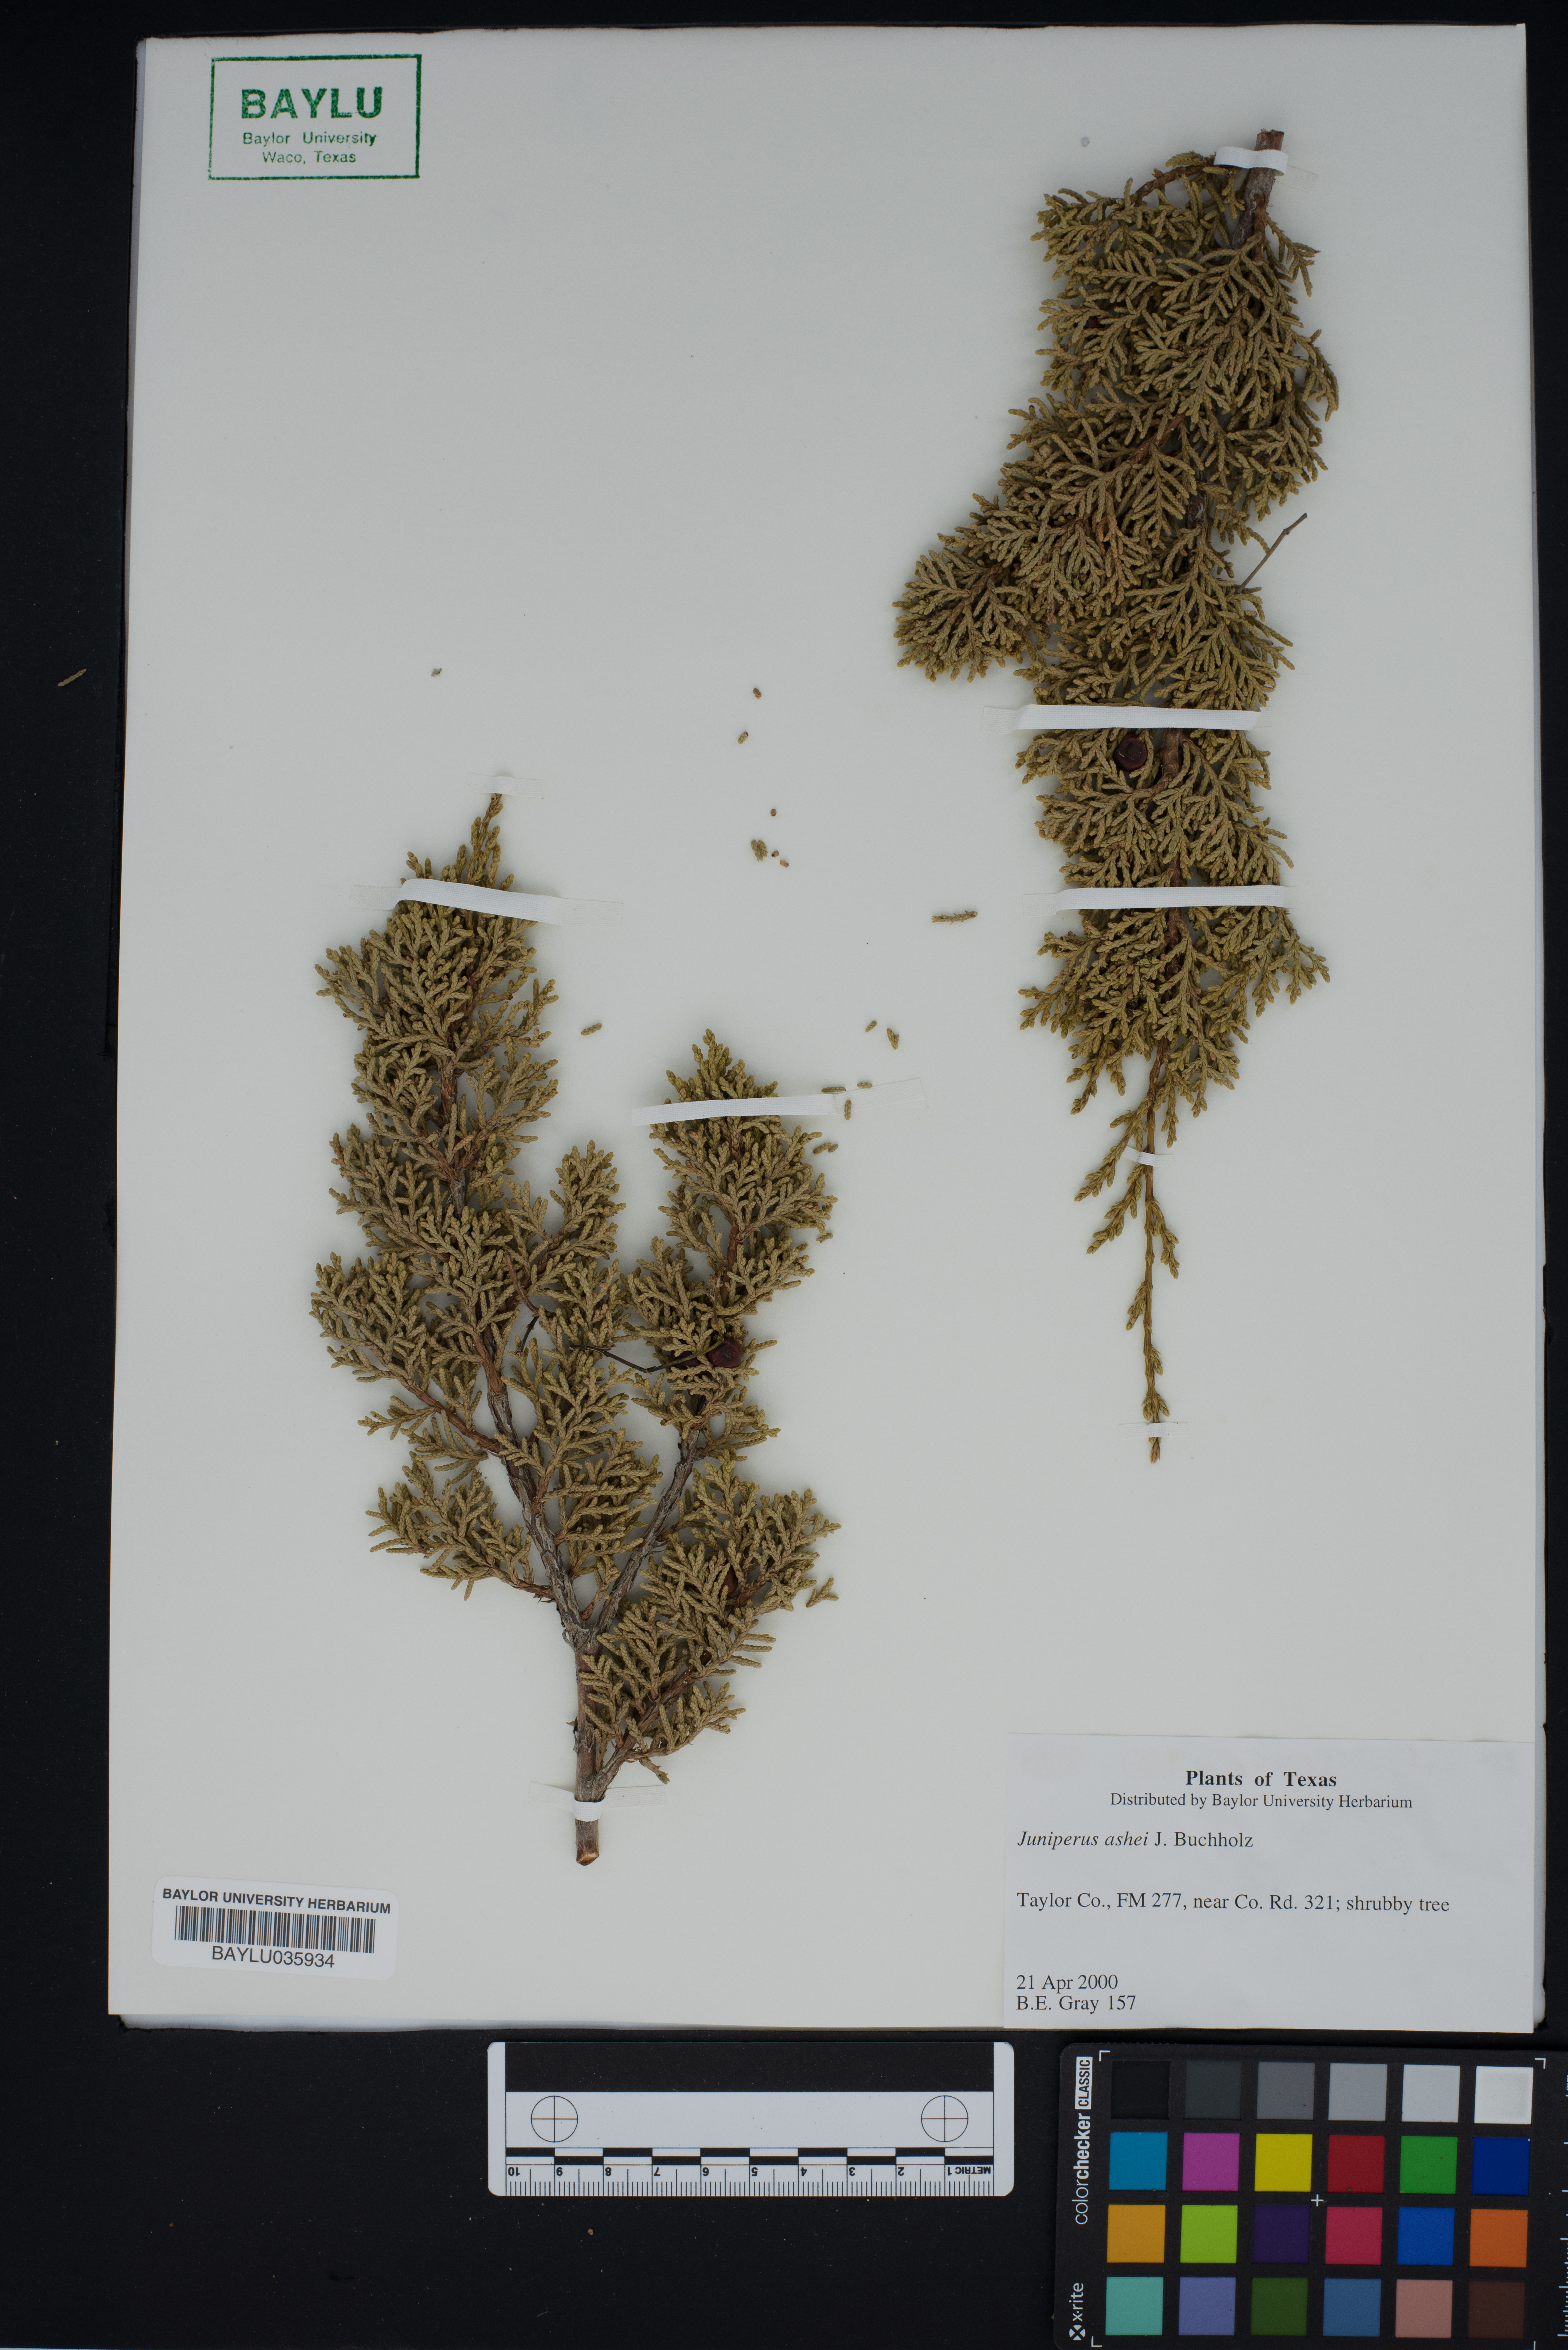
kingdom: Plantae
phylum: Tracheophyta
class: Pinopsida
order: Pinales
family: Cupressaceae
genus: Juniperus
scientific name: Juniperus ashei
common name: Mexican juniper
